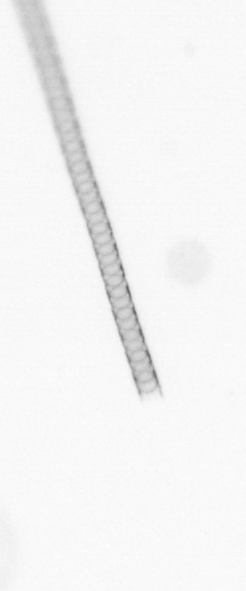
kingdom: Chromista
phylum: Ochrophyta
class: Bacillariophyceae
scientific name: Bacillariophyceae
